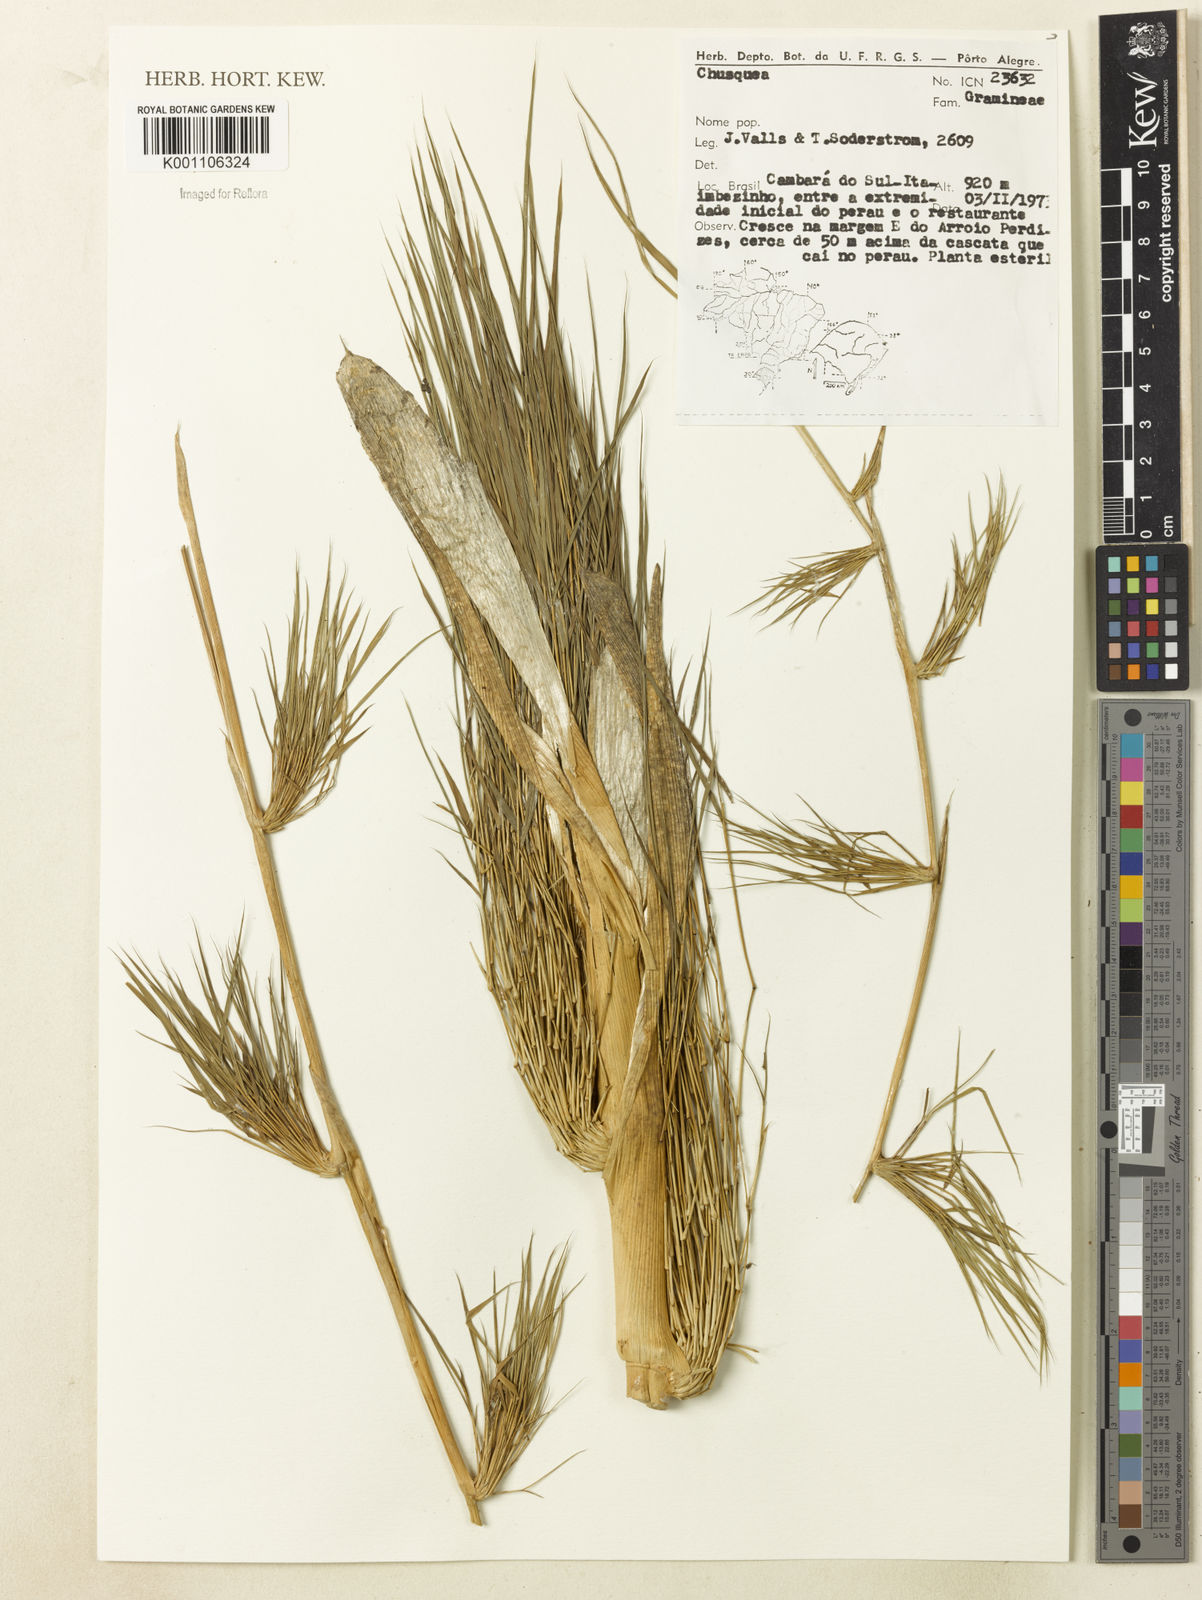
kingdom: Plantae
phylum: Tracheophyta
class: Liliopsida
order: Poales
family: Poaceae
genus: Chusquea
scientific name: Chusquea
